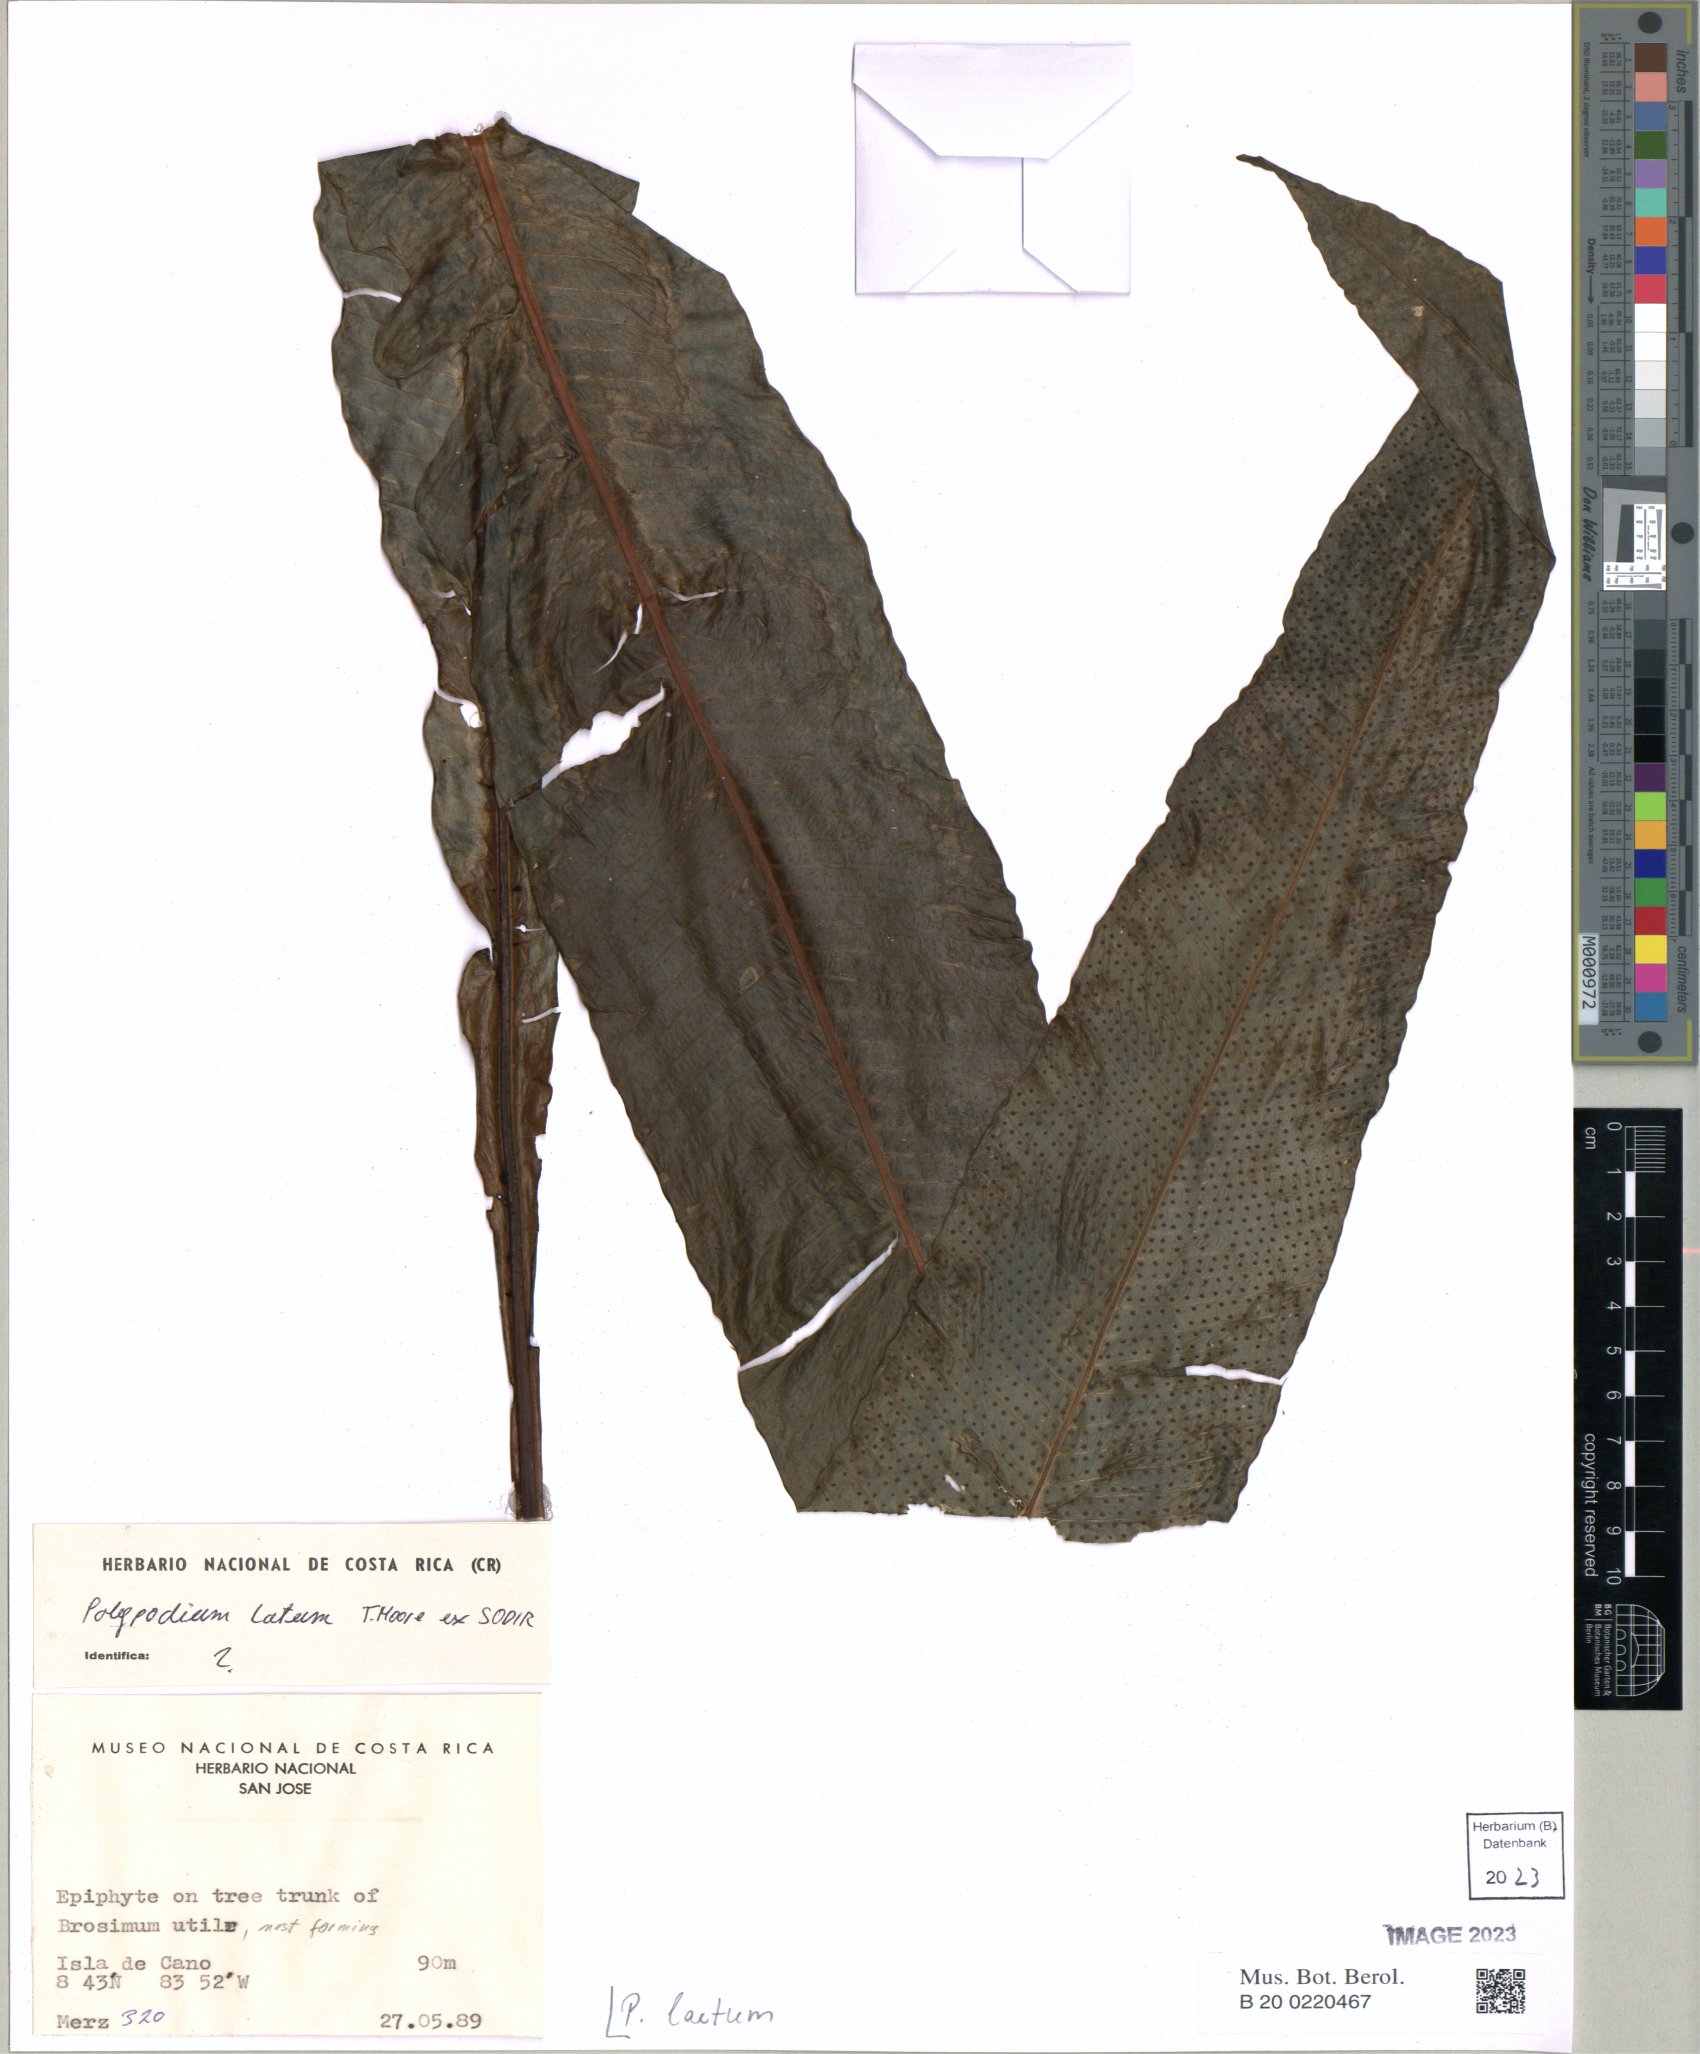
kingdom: Plantae
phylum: Tracheophyta
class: Polypodiopsida
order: Polypodiales
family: Polypodiaceae
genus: Serpocaulon
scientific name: Serpocaulon laetum
